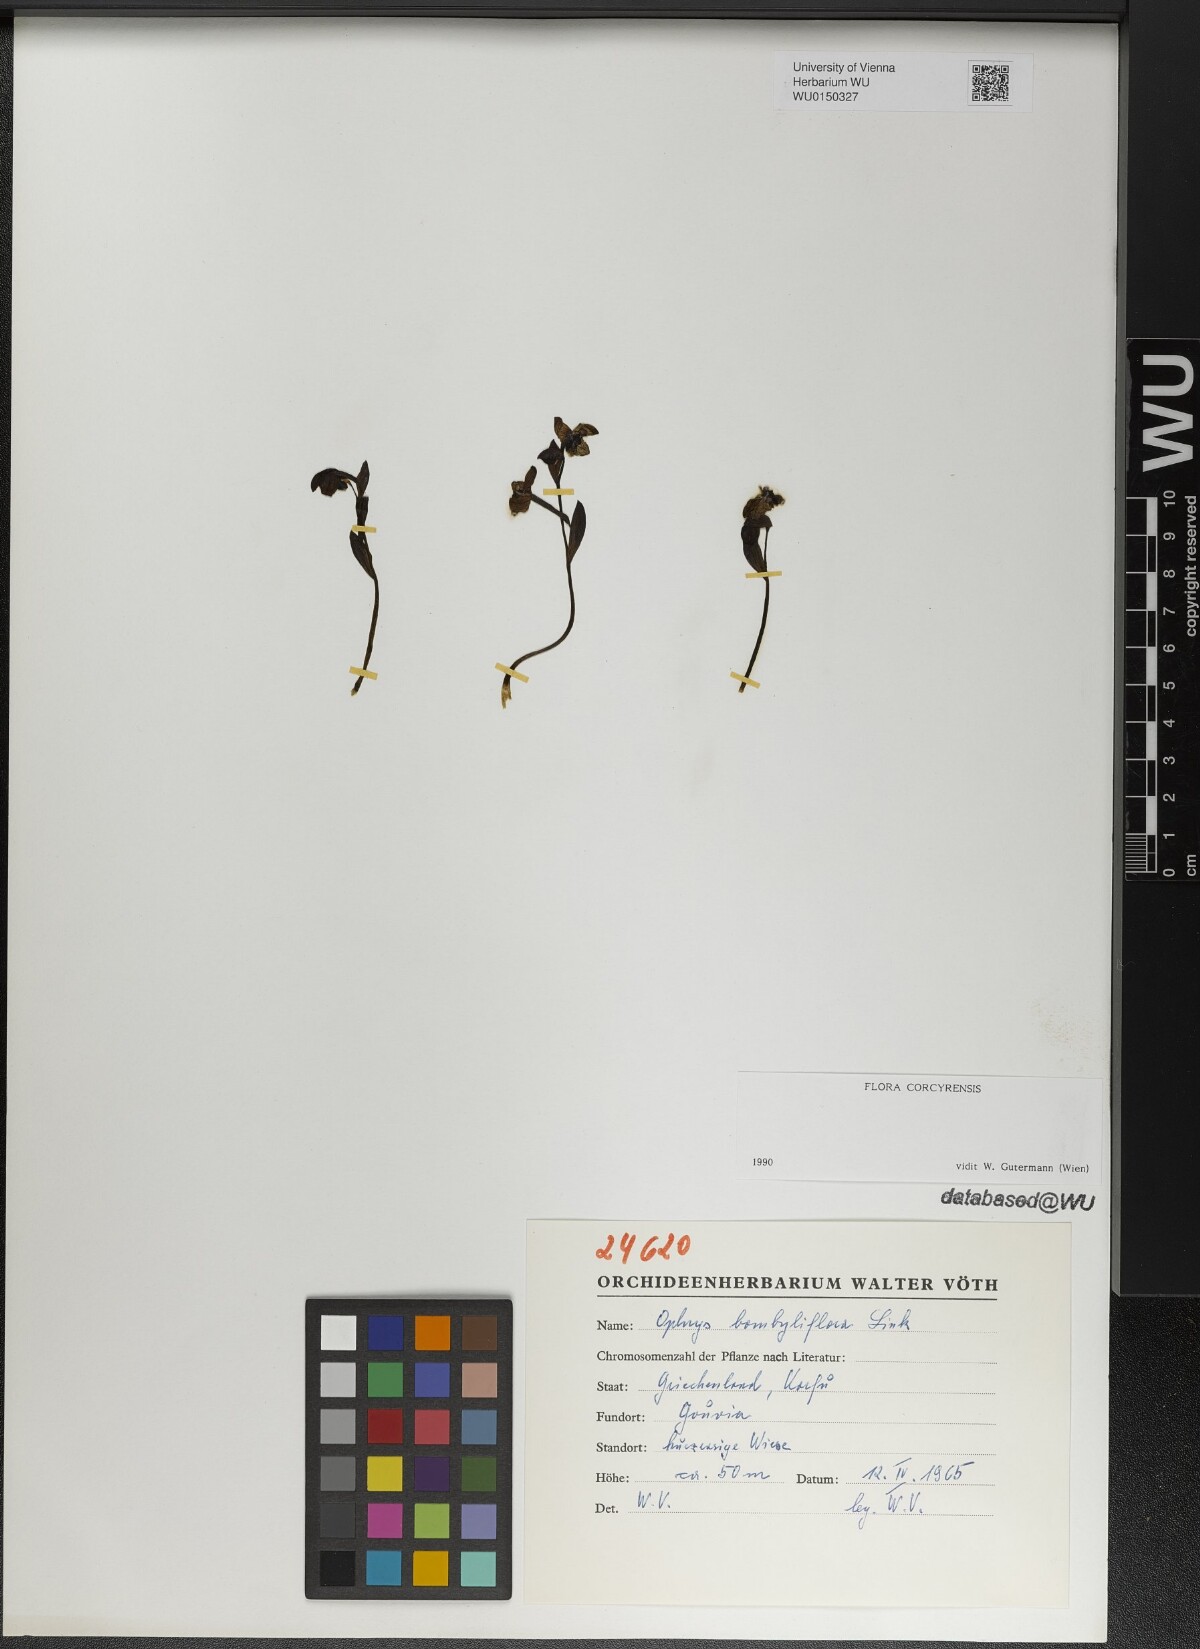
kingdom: Plantae
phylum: Tracheophyta
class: Liliopsida
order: Asparagales
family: Orchidaceae
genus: Ophrys
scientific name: Ophrys bombyliflora
